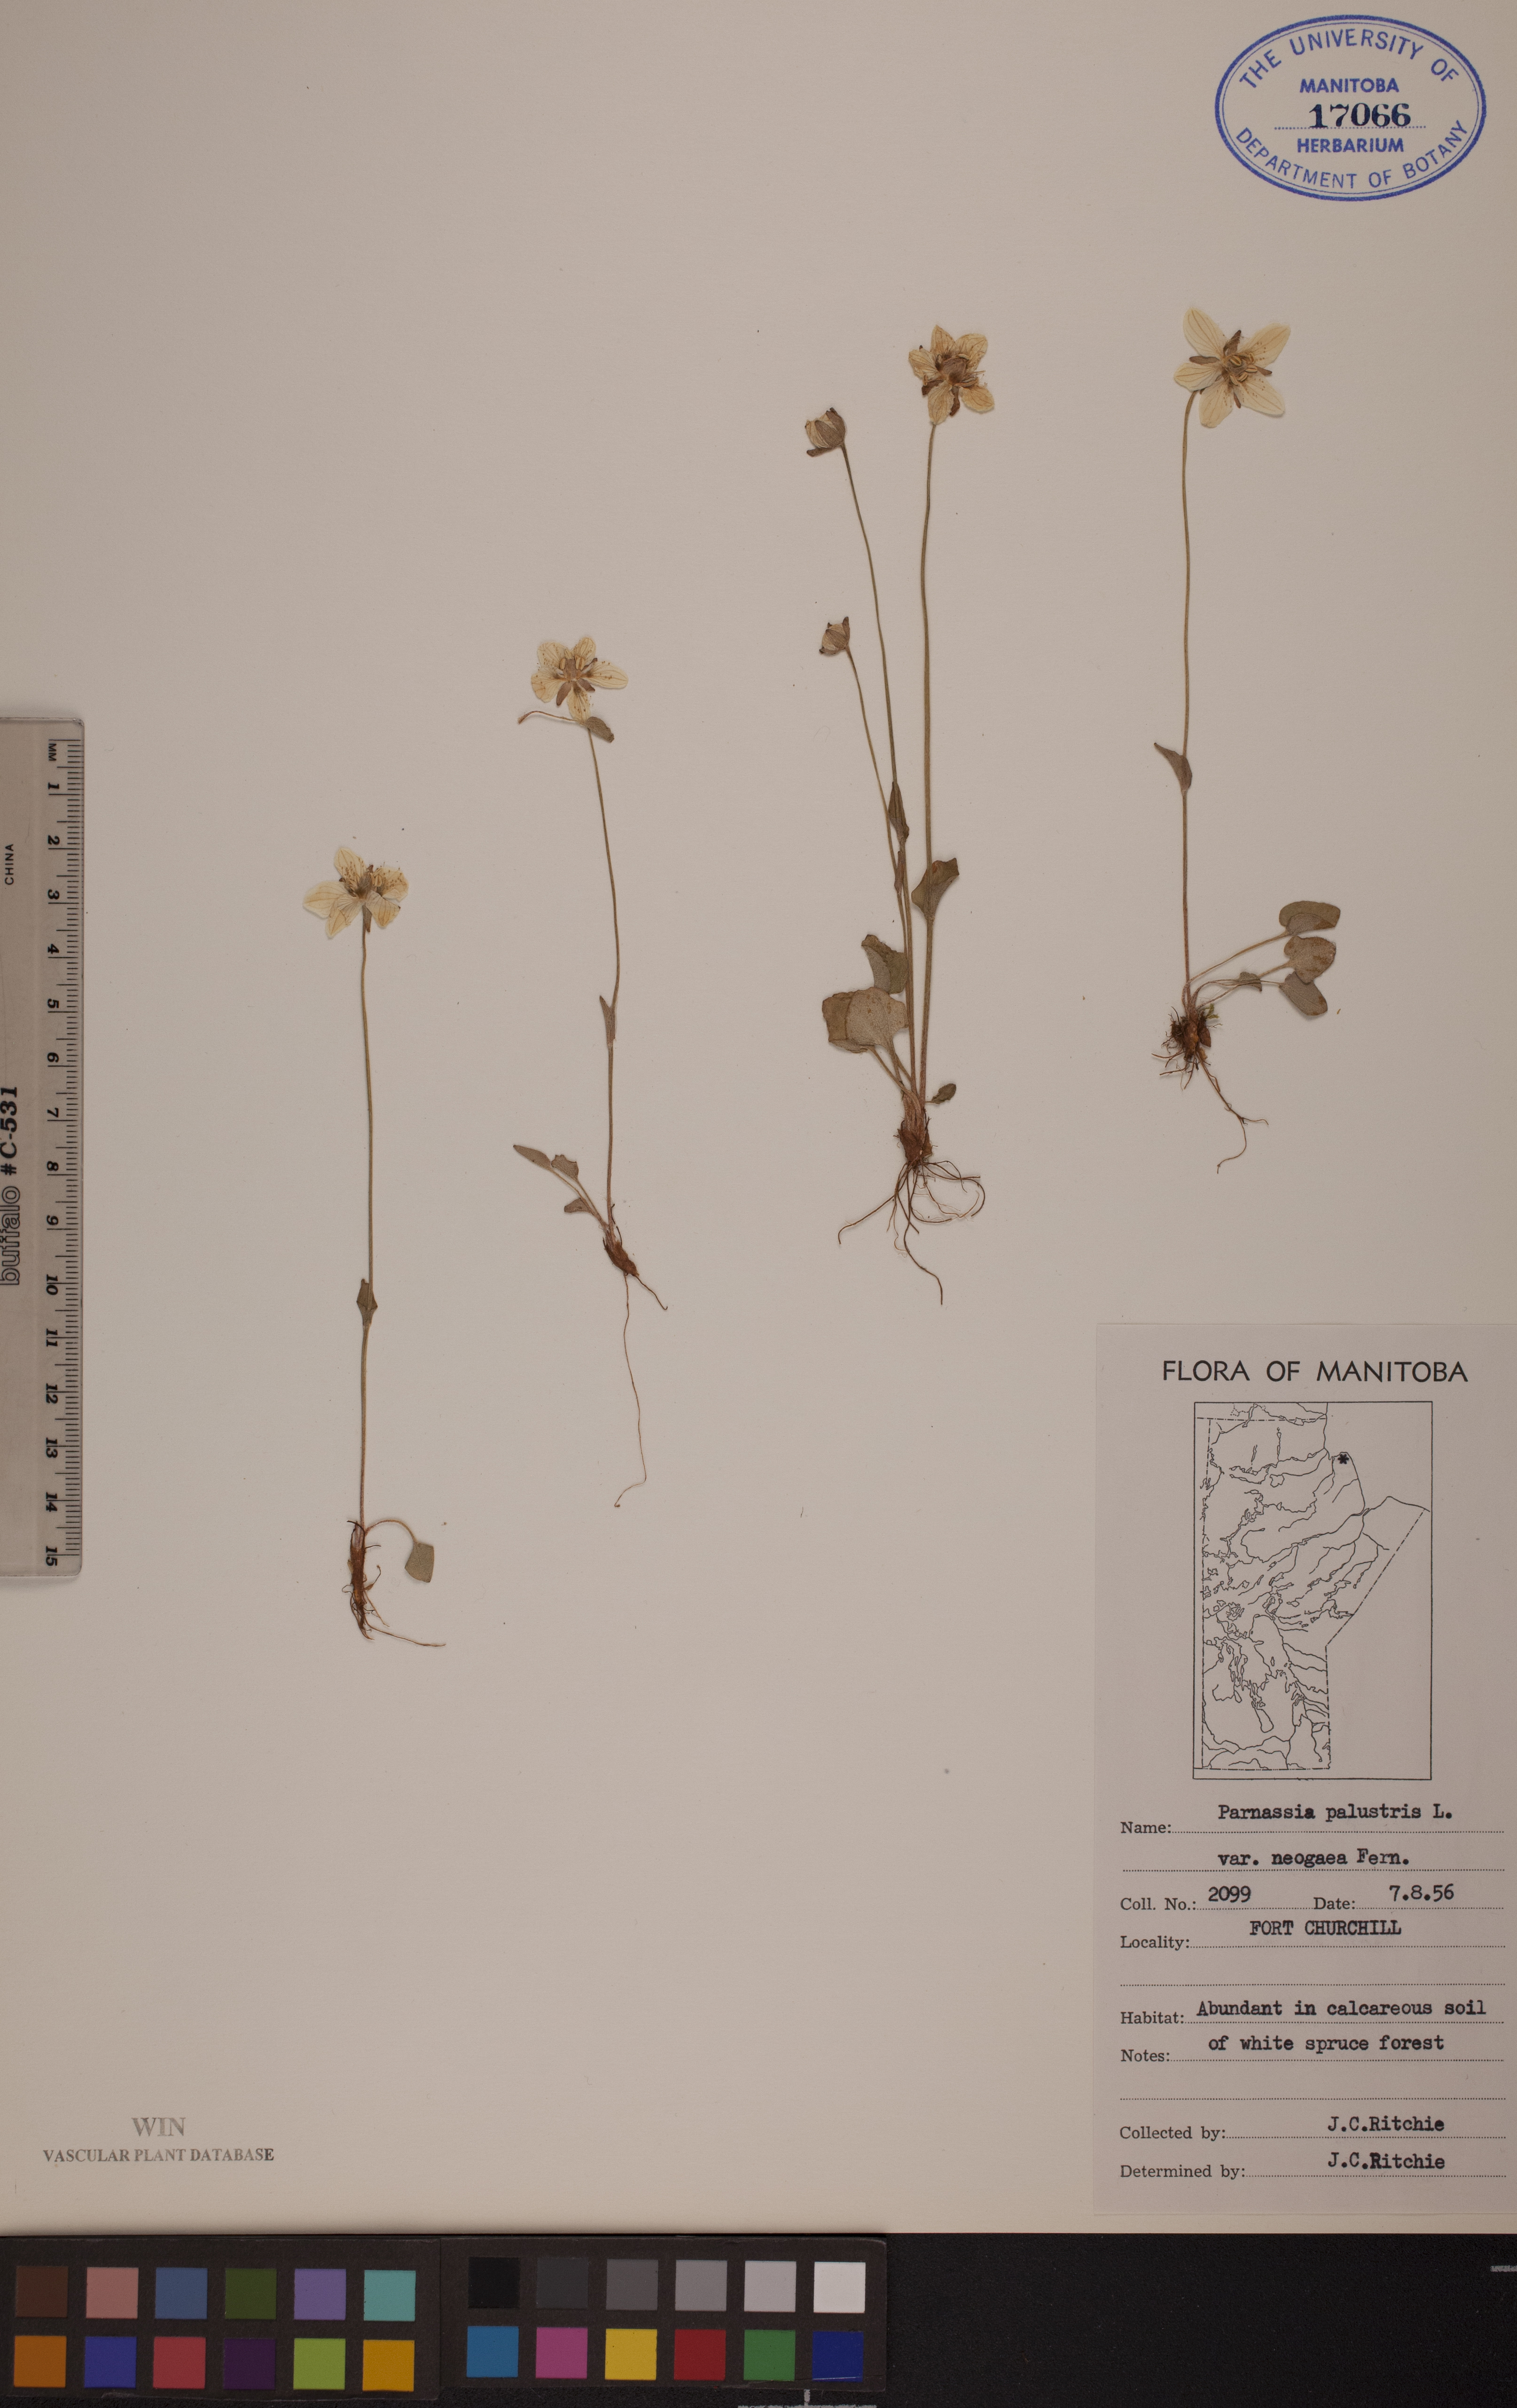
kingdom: Plantae
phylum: Tracheophyta
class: Magnoliopsida
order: Celastrales
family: Parnassiaceae
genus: Parnassia
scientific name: Parnassia palustris
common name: Grass-of-parnassus
